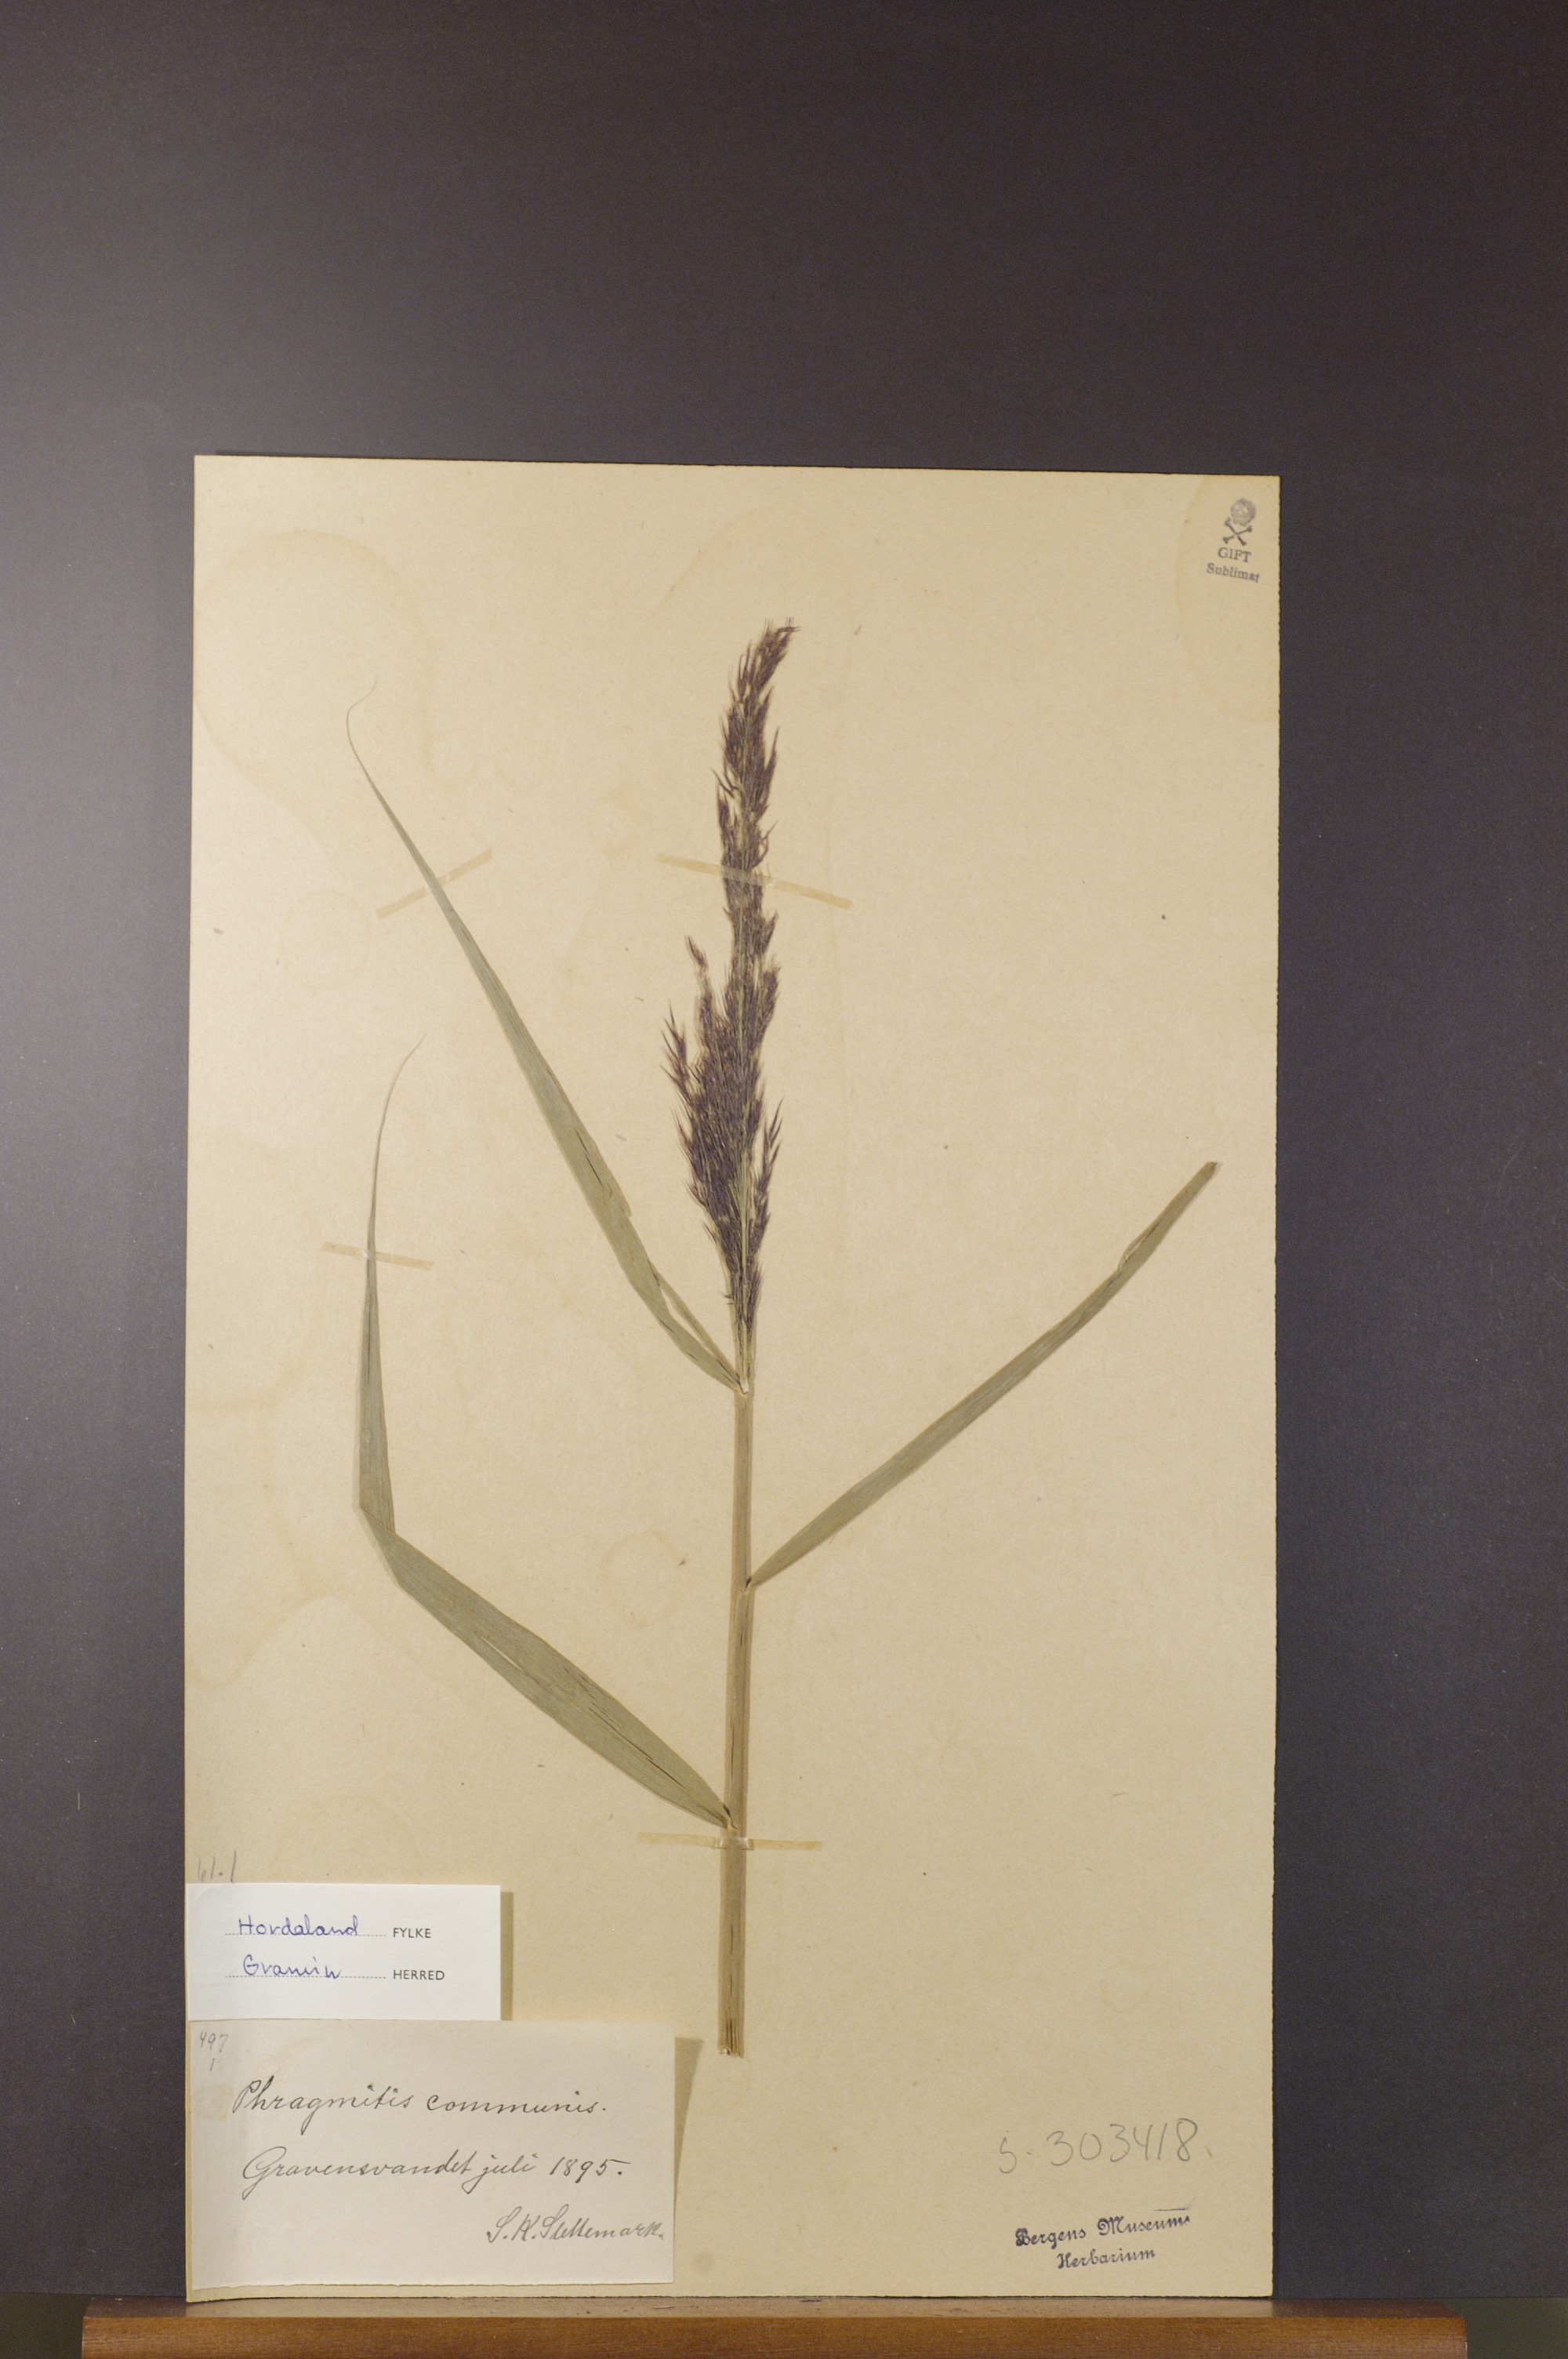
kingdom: Plantae
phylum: Tracheophyta
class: Liliopsida
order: Poales
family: Poaceae
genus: Phragmites
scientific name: Phragmites australis
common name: Common reed
